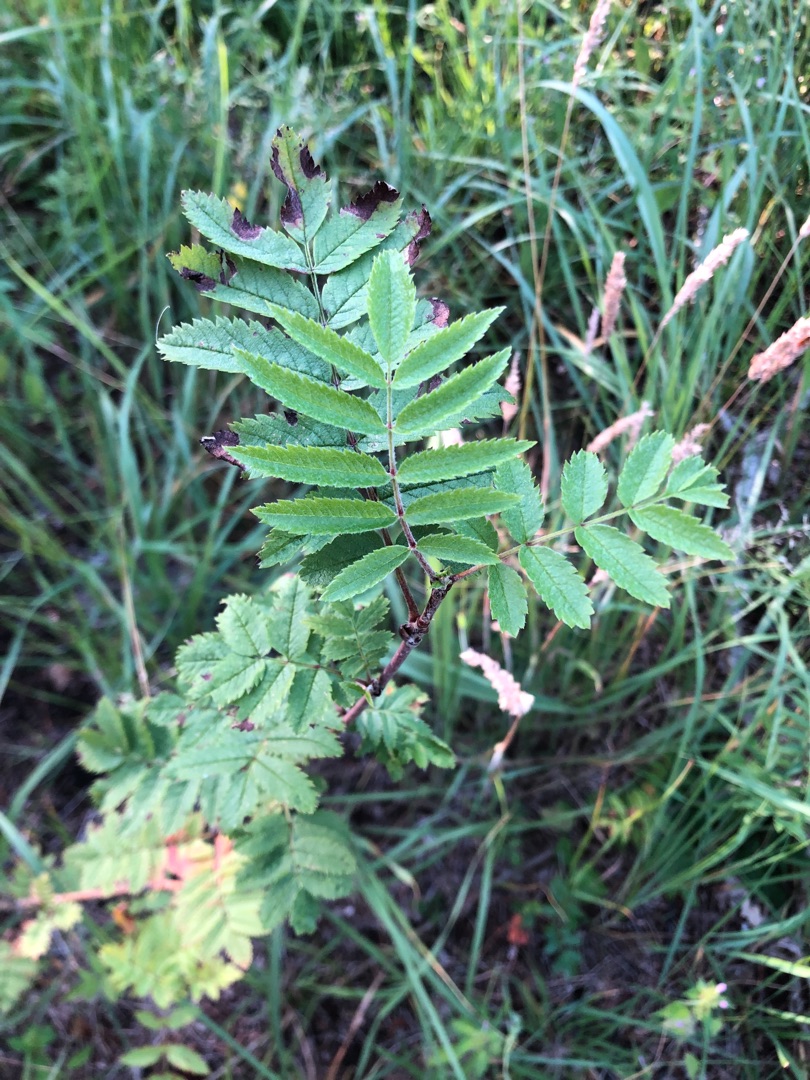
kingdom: Plantae
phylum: Tracheophyta
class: Magnoliopsida
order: Rosales
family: Rosaceae
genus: Sorbus
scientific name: Sorbus aucuparia
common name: Almindelig røn
